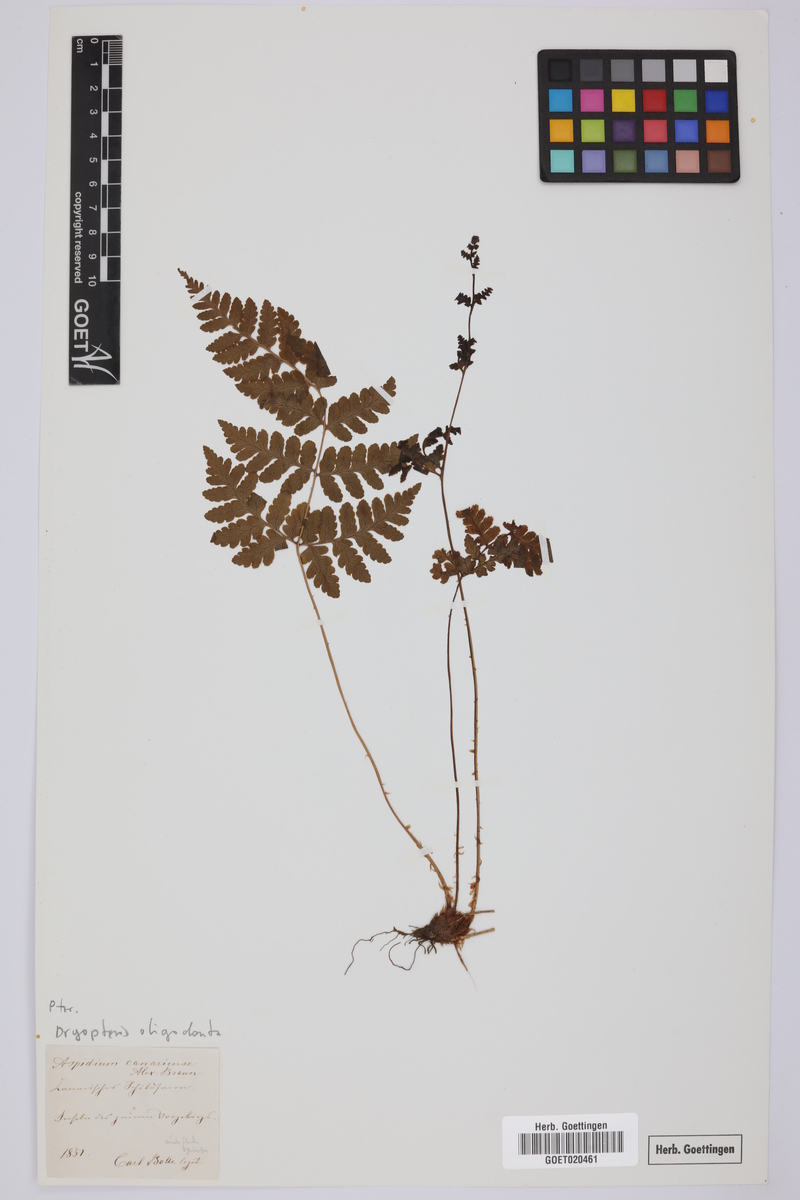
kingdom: Plantae
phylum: Tracheophyta
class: Polypodiopsida
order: Polypodiales
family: Dryopteridaceae
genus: Dryopteris
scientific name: Dryopteris oligodonta
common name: Canarian male-fern
